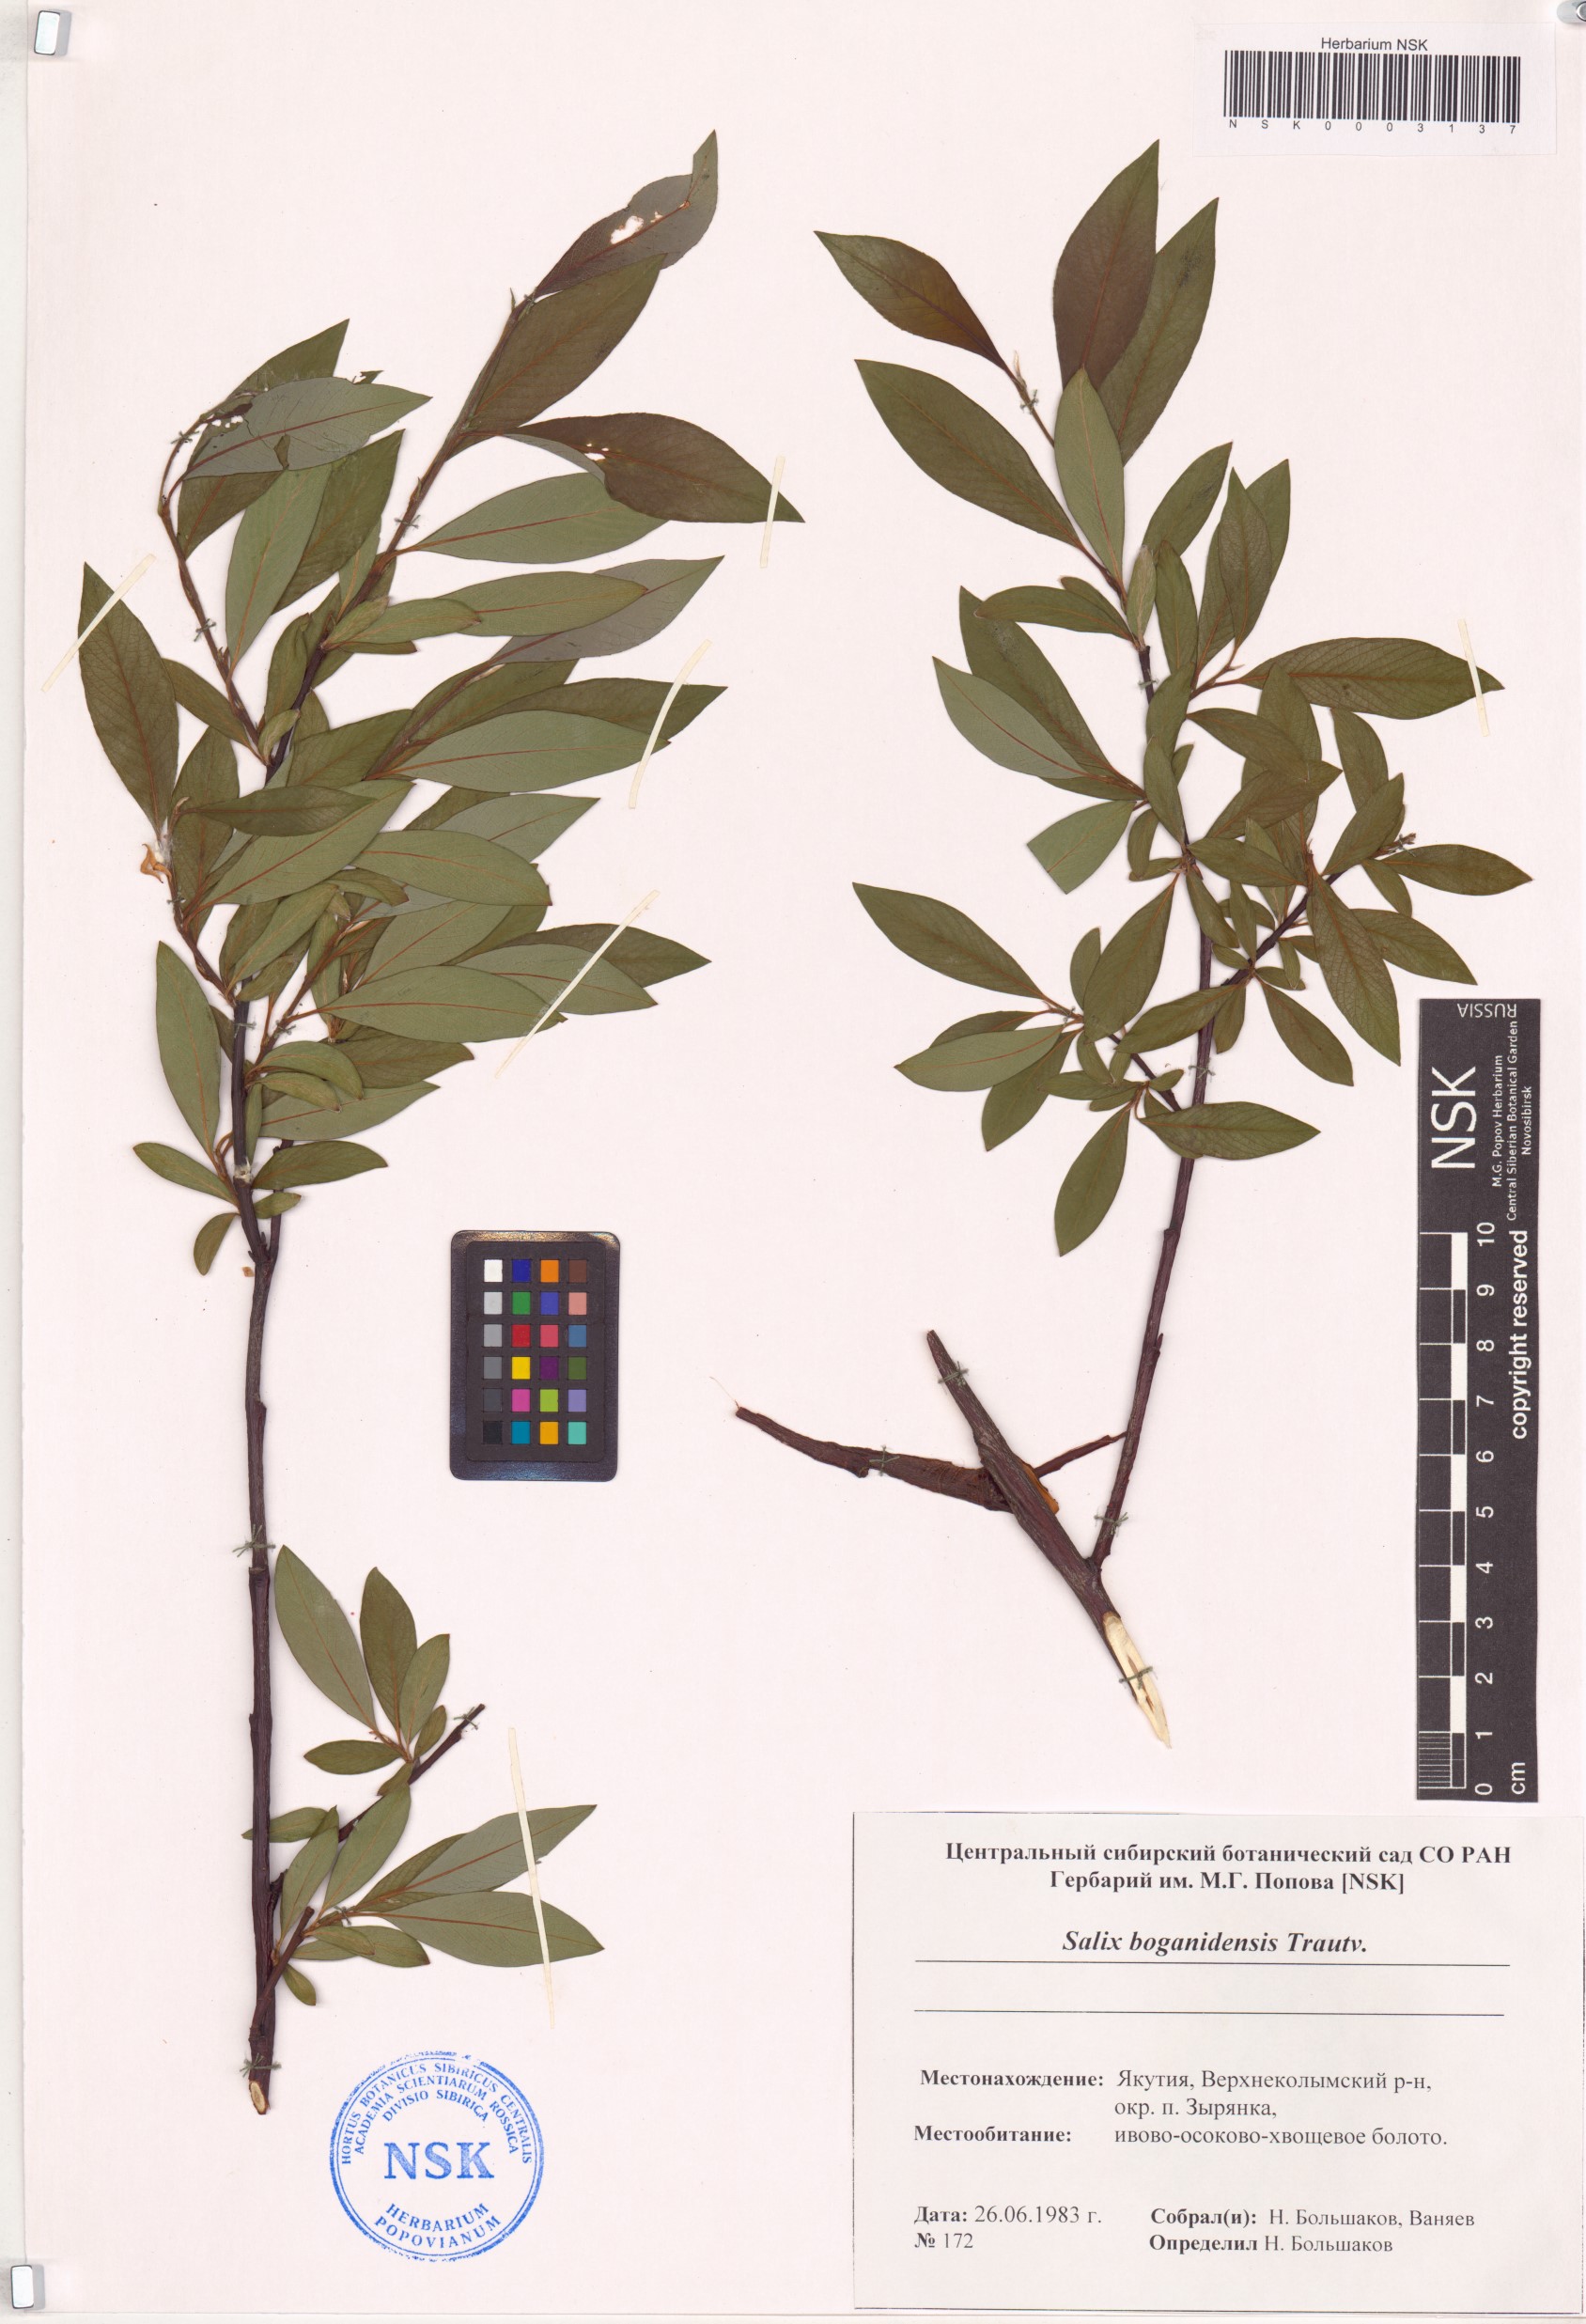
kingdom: Plantae
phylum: Tracheophyta
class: Magnoliopsida
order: Malpighiales
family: Salicaceae
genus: Salix
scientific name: Salix boganidensis
